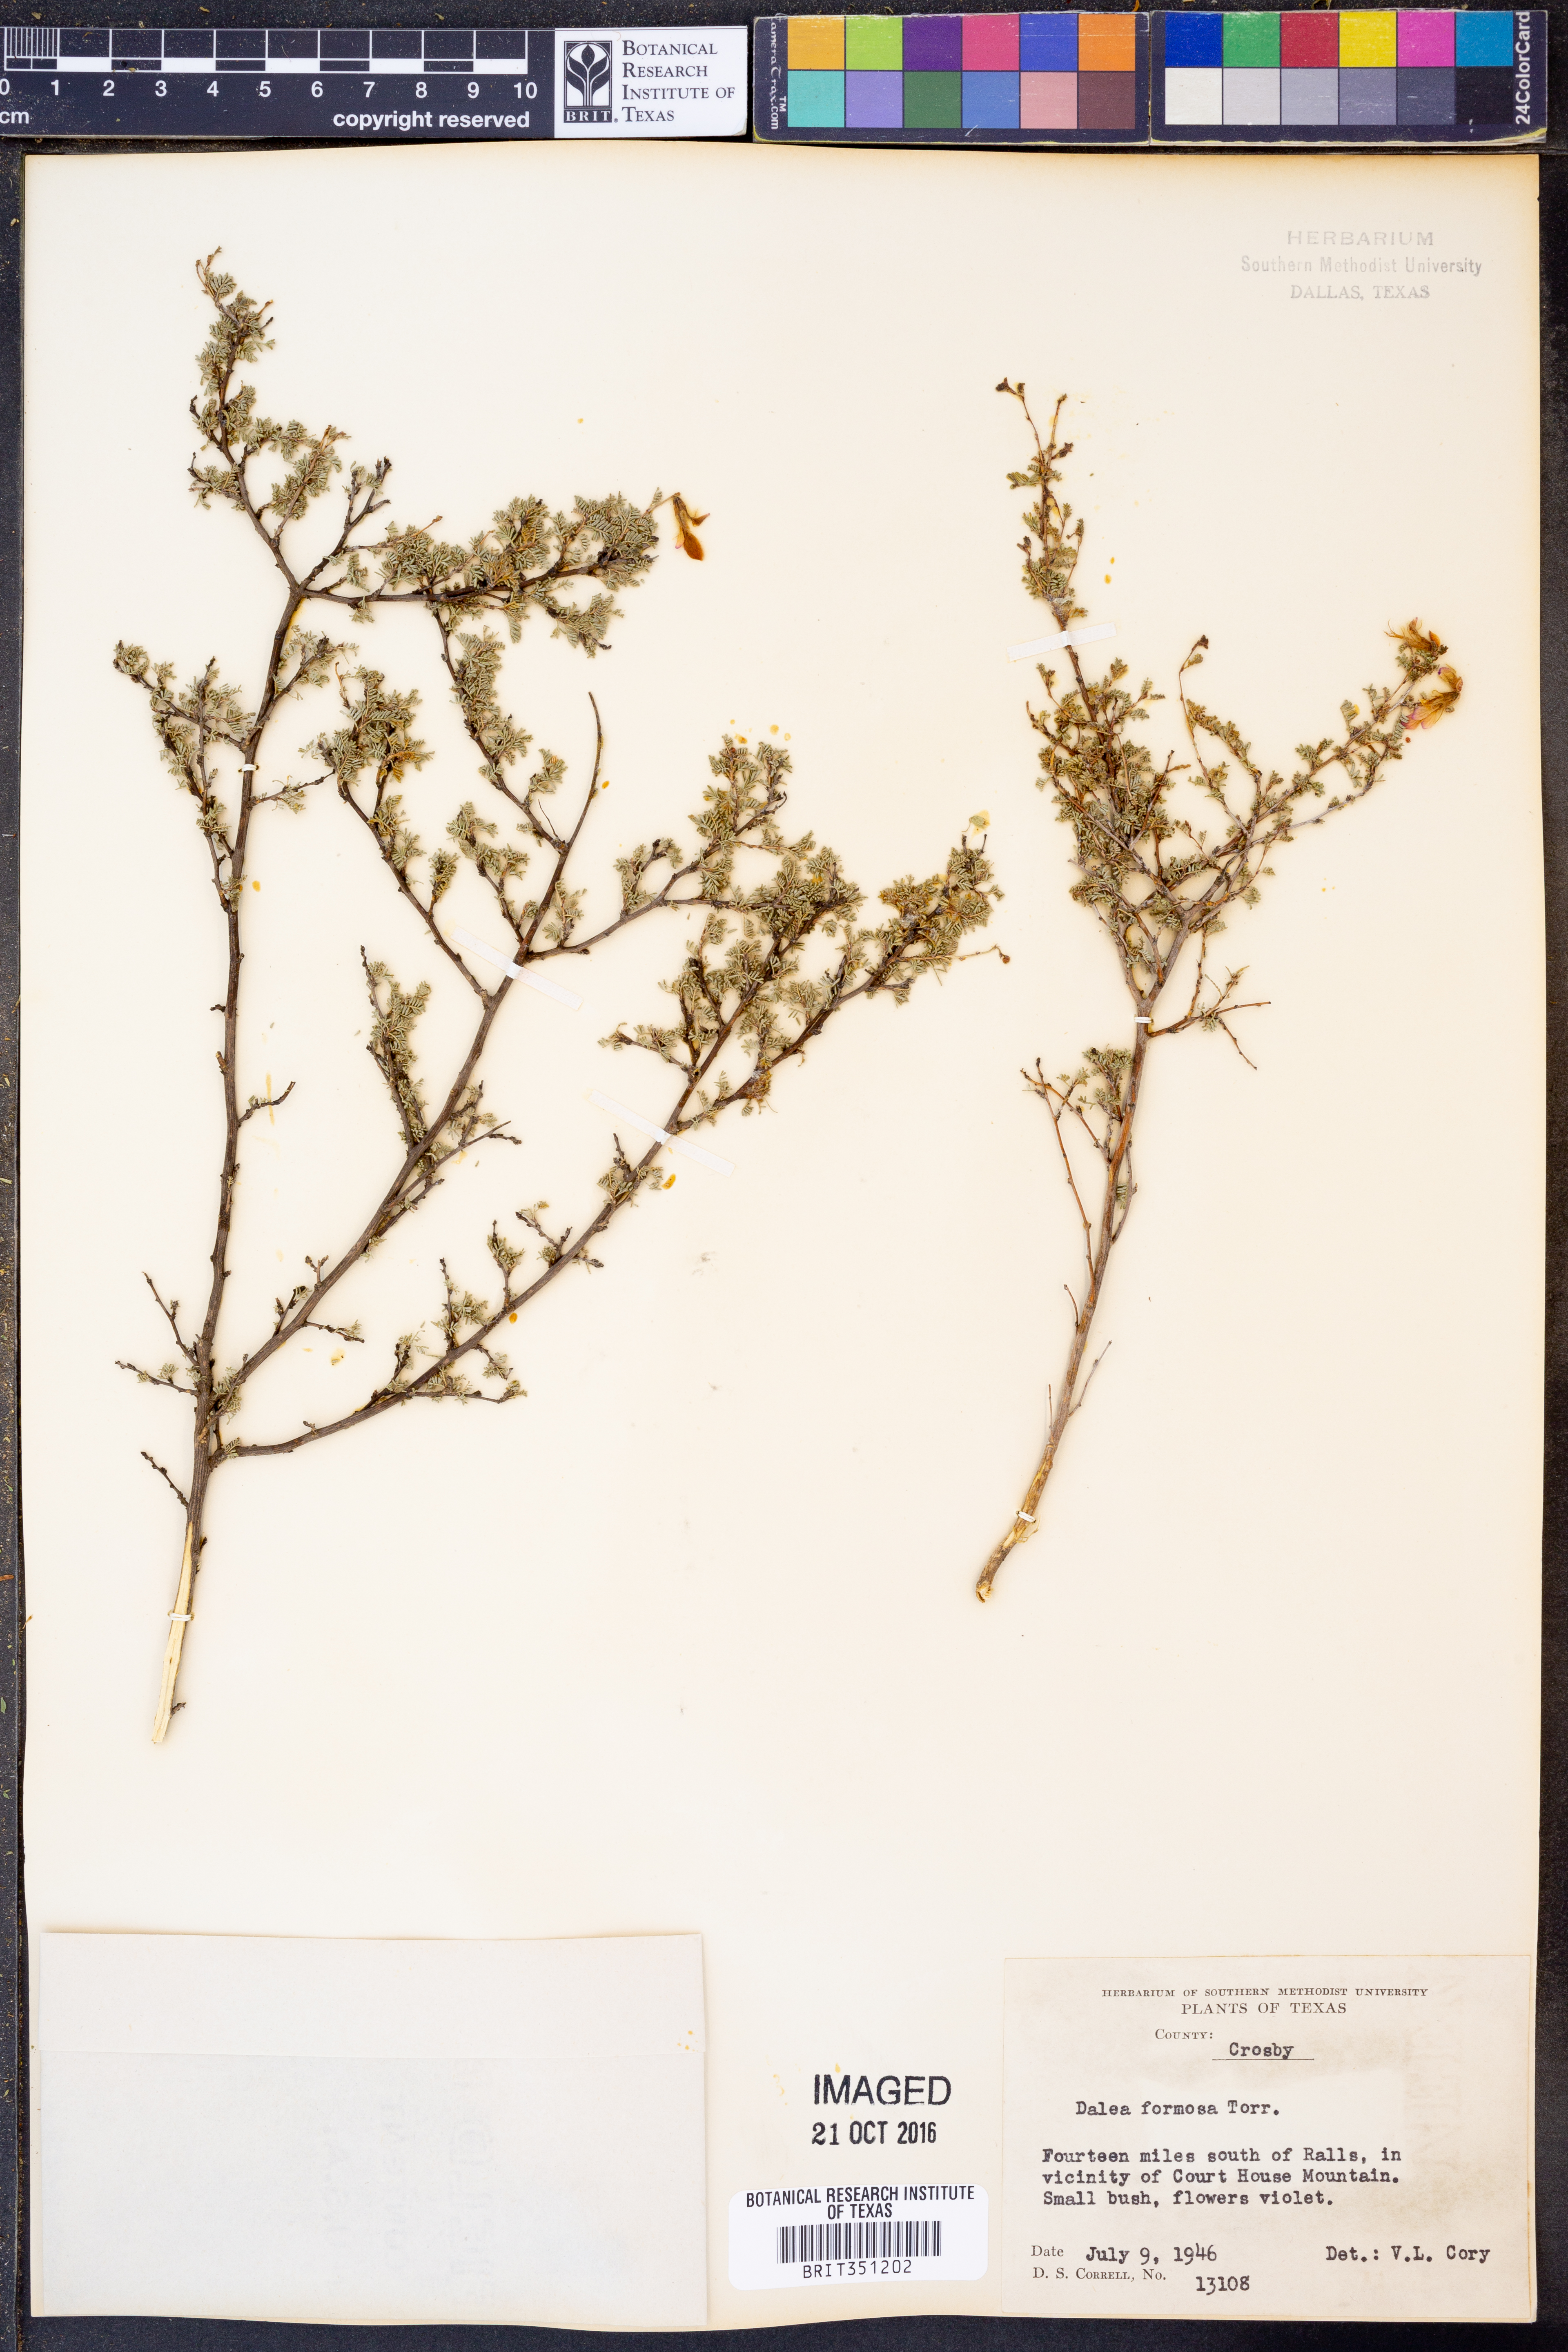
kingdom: Plantae
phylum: Tracheophyta
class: Magnoliopsida
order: Fabales
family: Fabaceae
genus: Dalea
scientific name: Dalea formosa
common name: Feather-plume dalea
